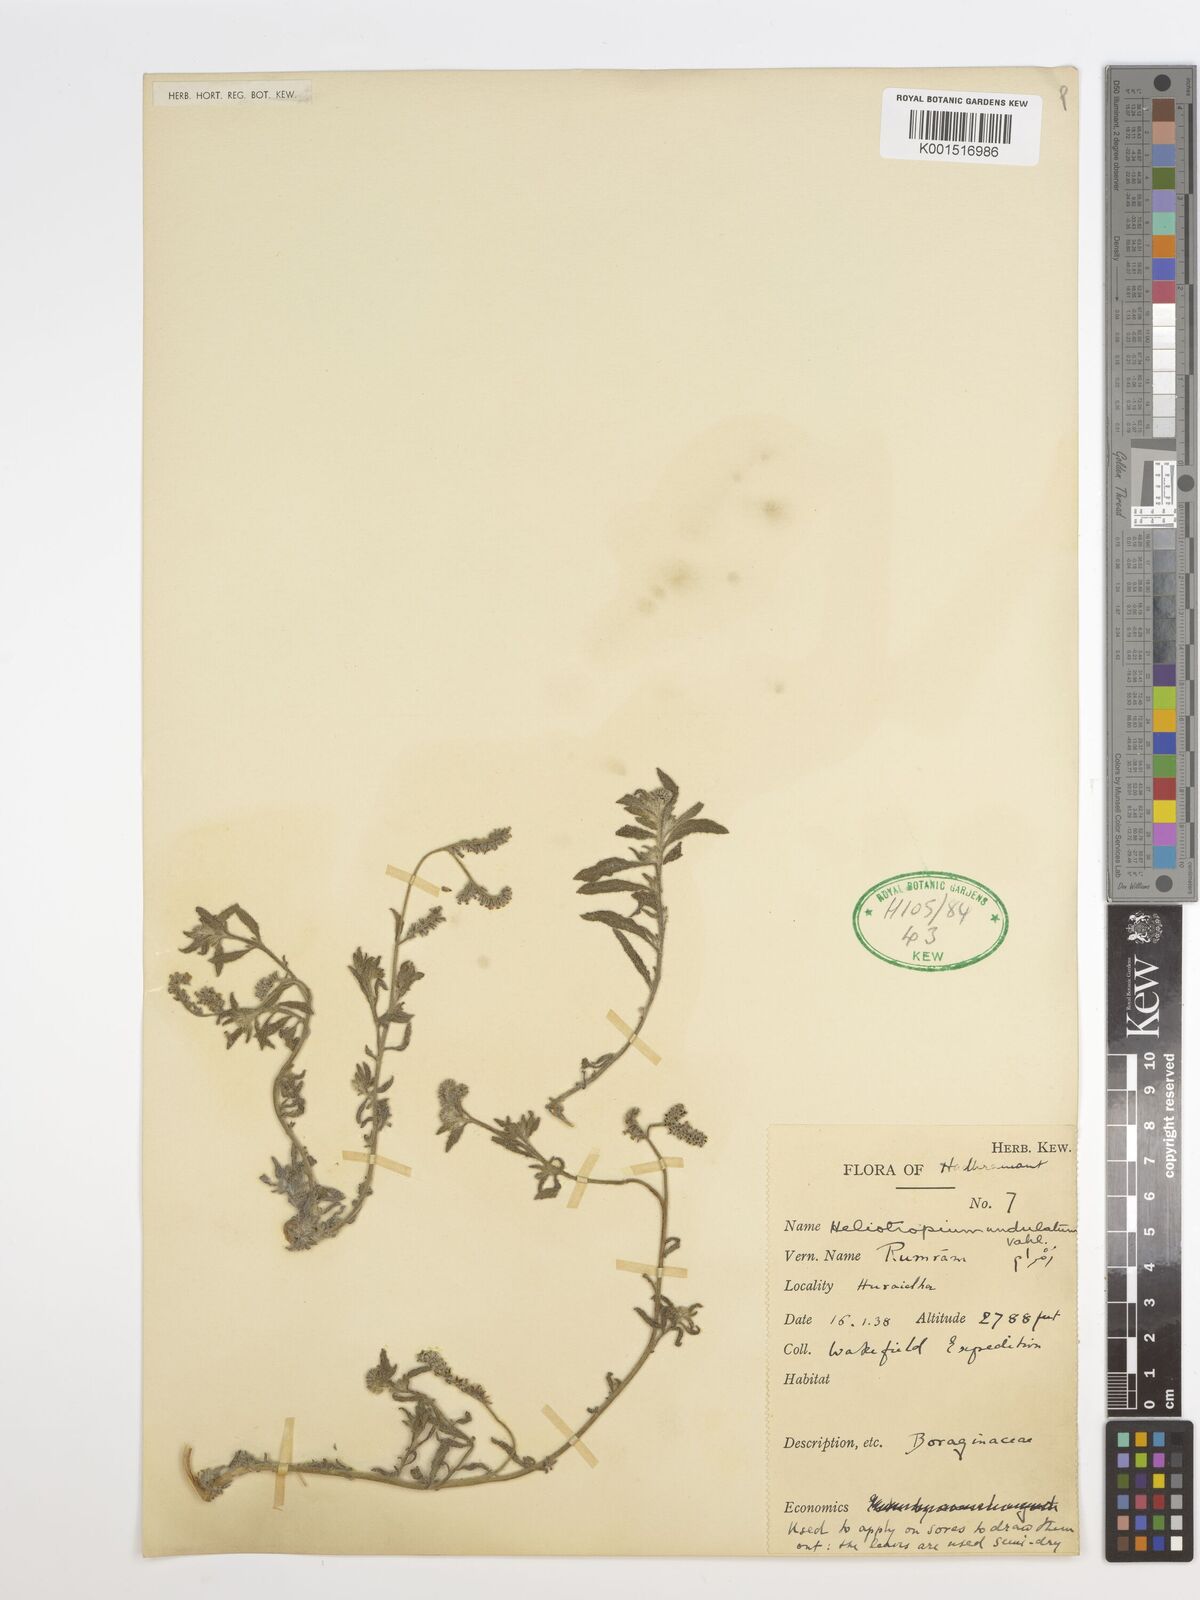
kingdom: Plantae
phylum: Tracheophyta
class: Magnoliopsida
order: Boraginales
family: Heliotropiaceae
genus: Heliotropium
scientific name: Heliotropium bacciferum
